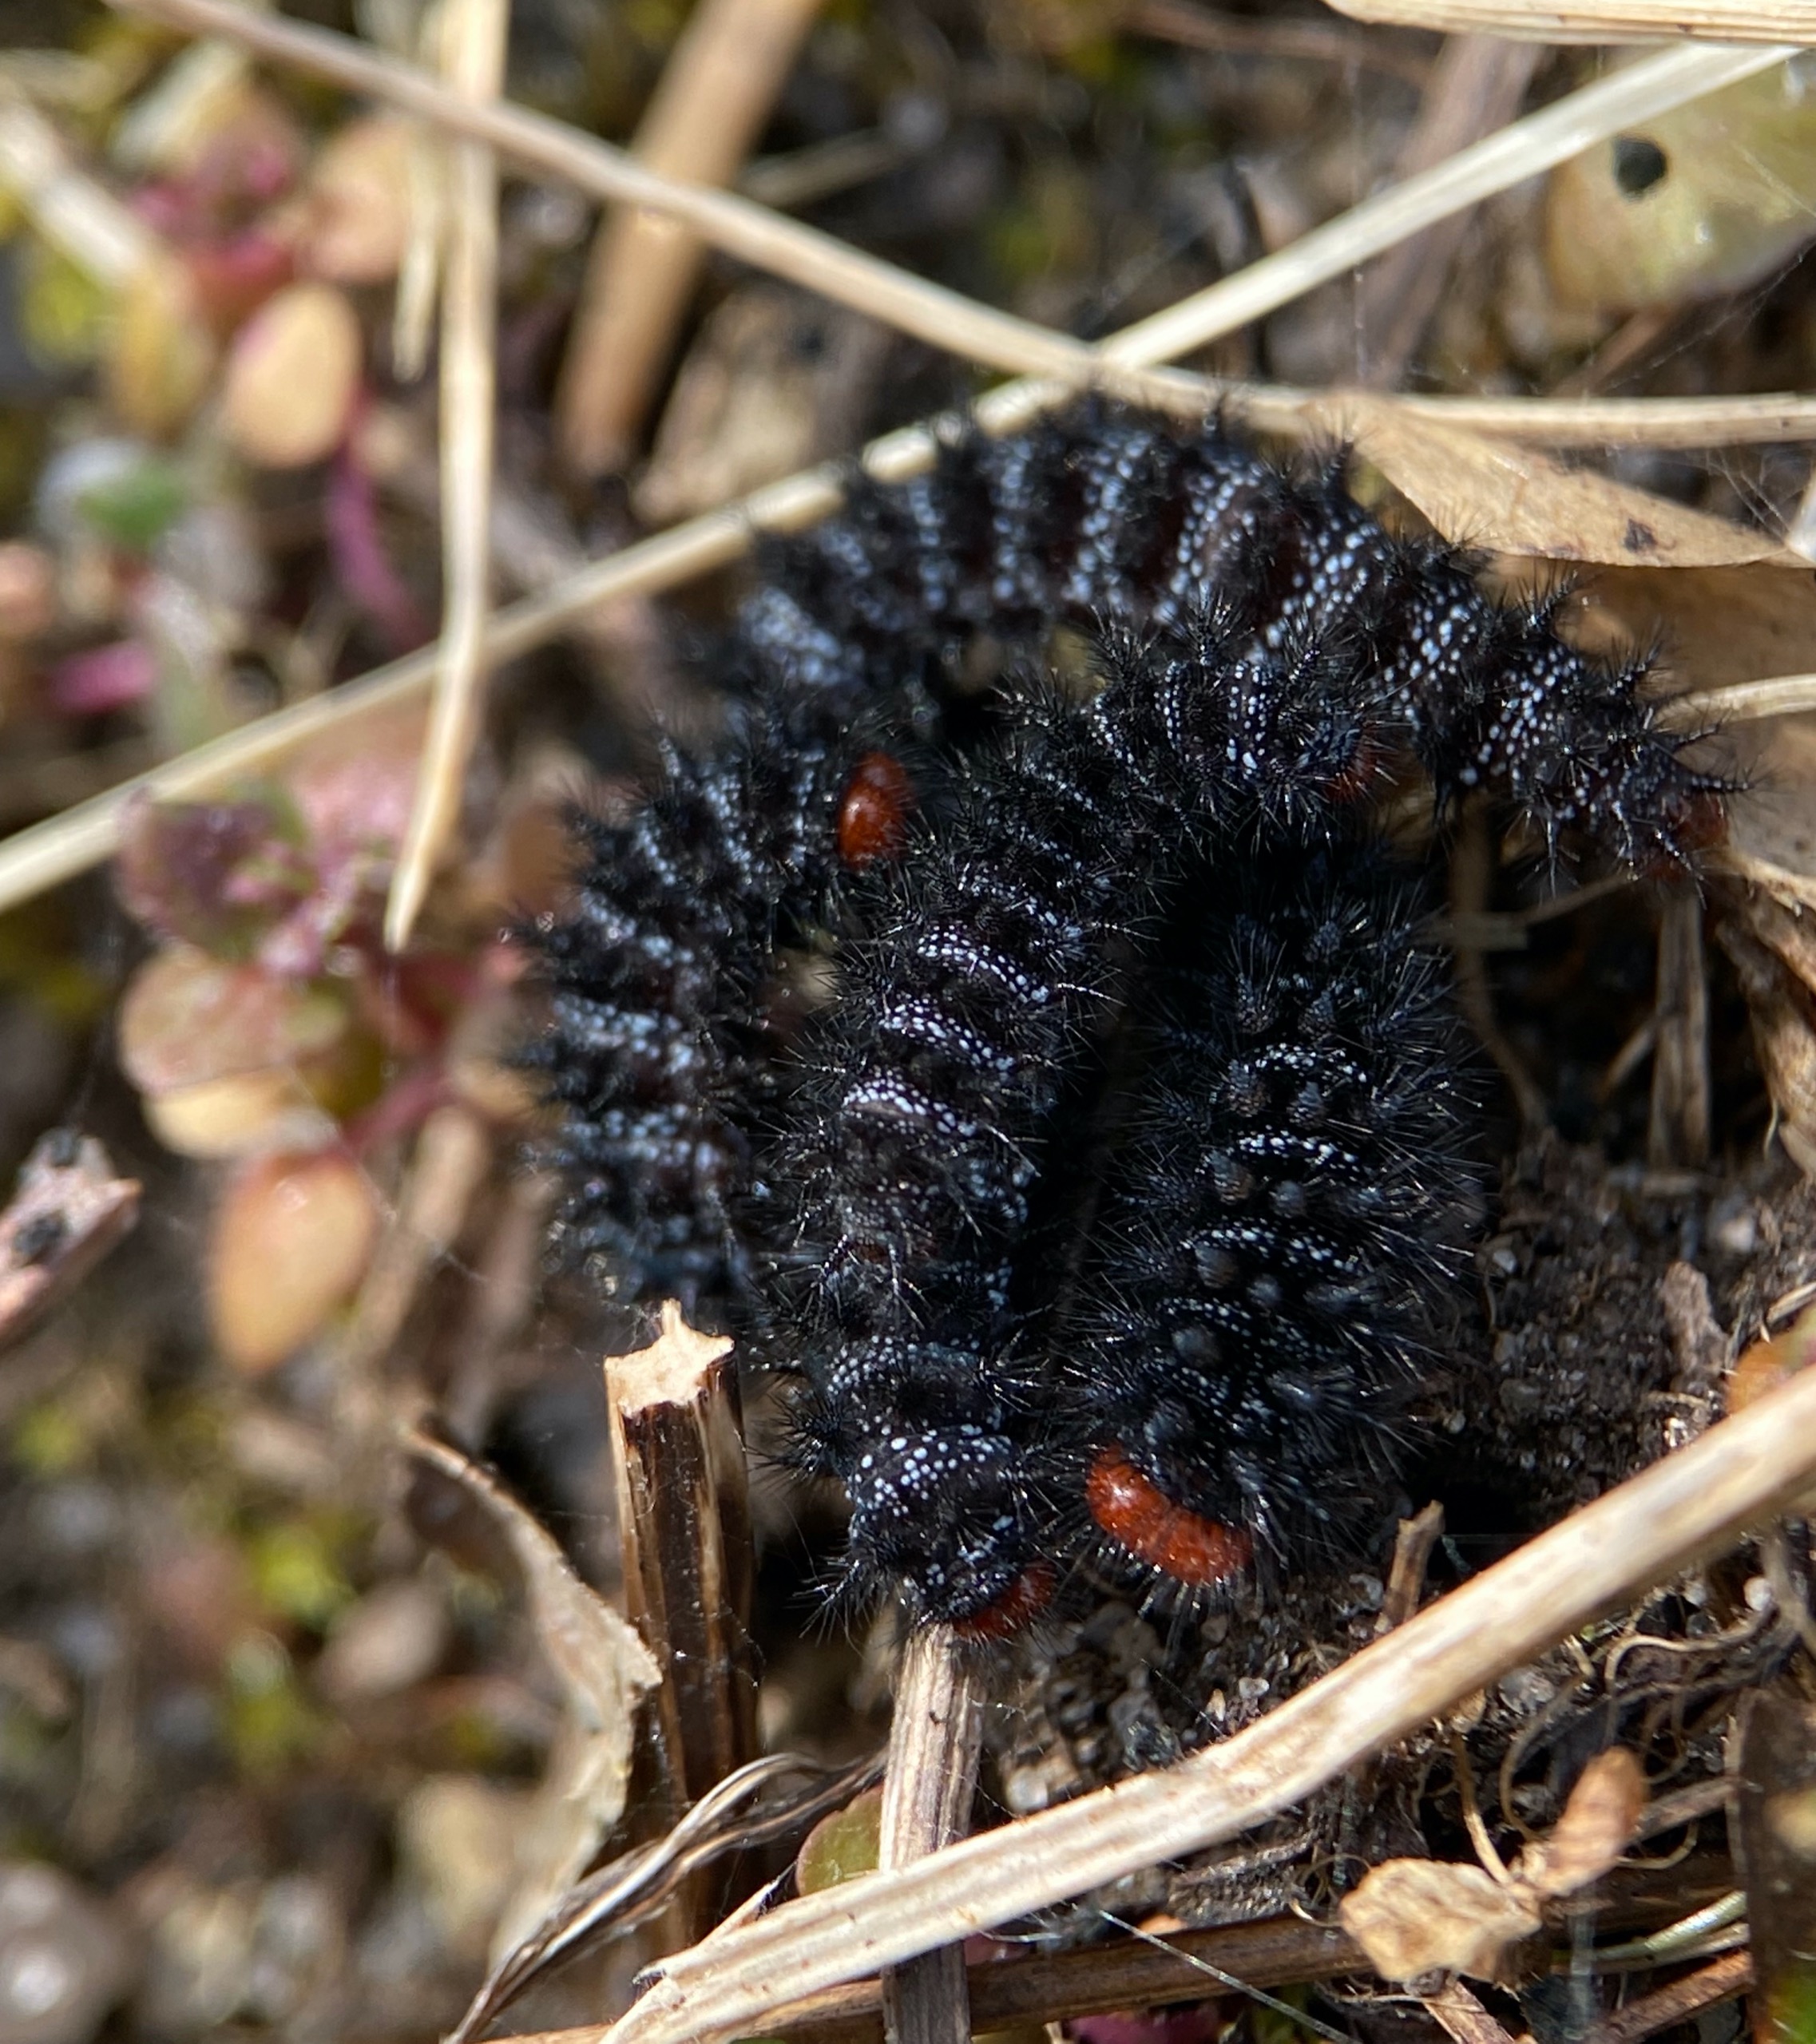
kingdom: Animalia
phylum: Arthropoda
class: Insecta
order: Lepidoptera
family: Nymphalidae
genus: Melitaea
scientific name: Melitaea cinxia
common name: Okkergul pletvinge
